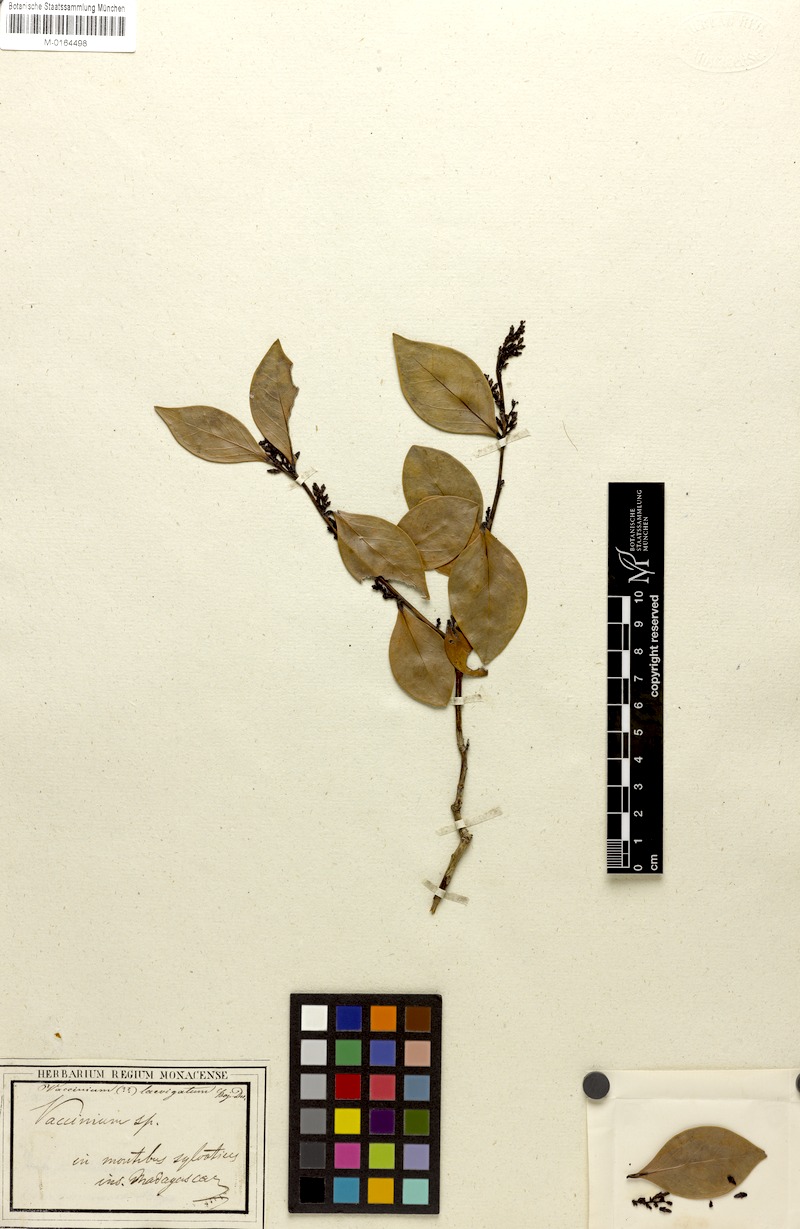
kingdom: Plantae
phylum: Tracheophyta
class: Magnoliopsida
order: Ericales
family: Ericaceae
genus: Vaccinium
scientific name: Vaccinium madagascariense
